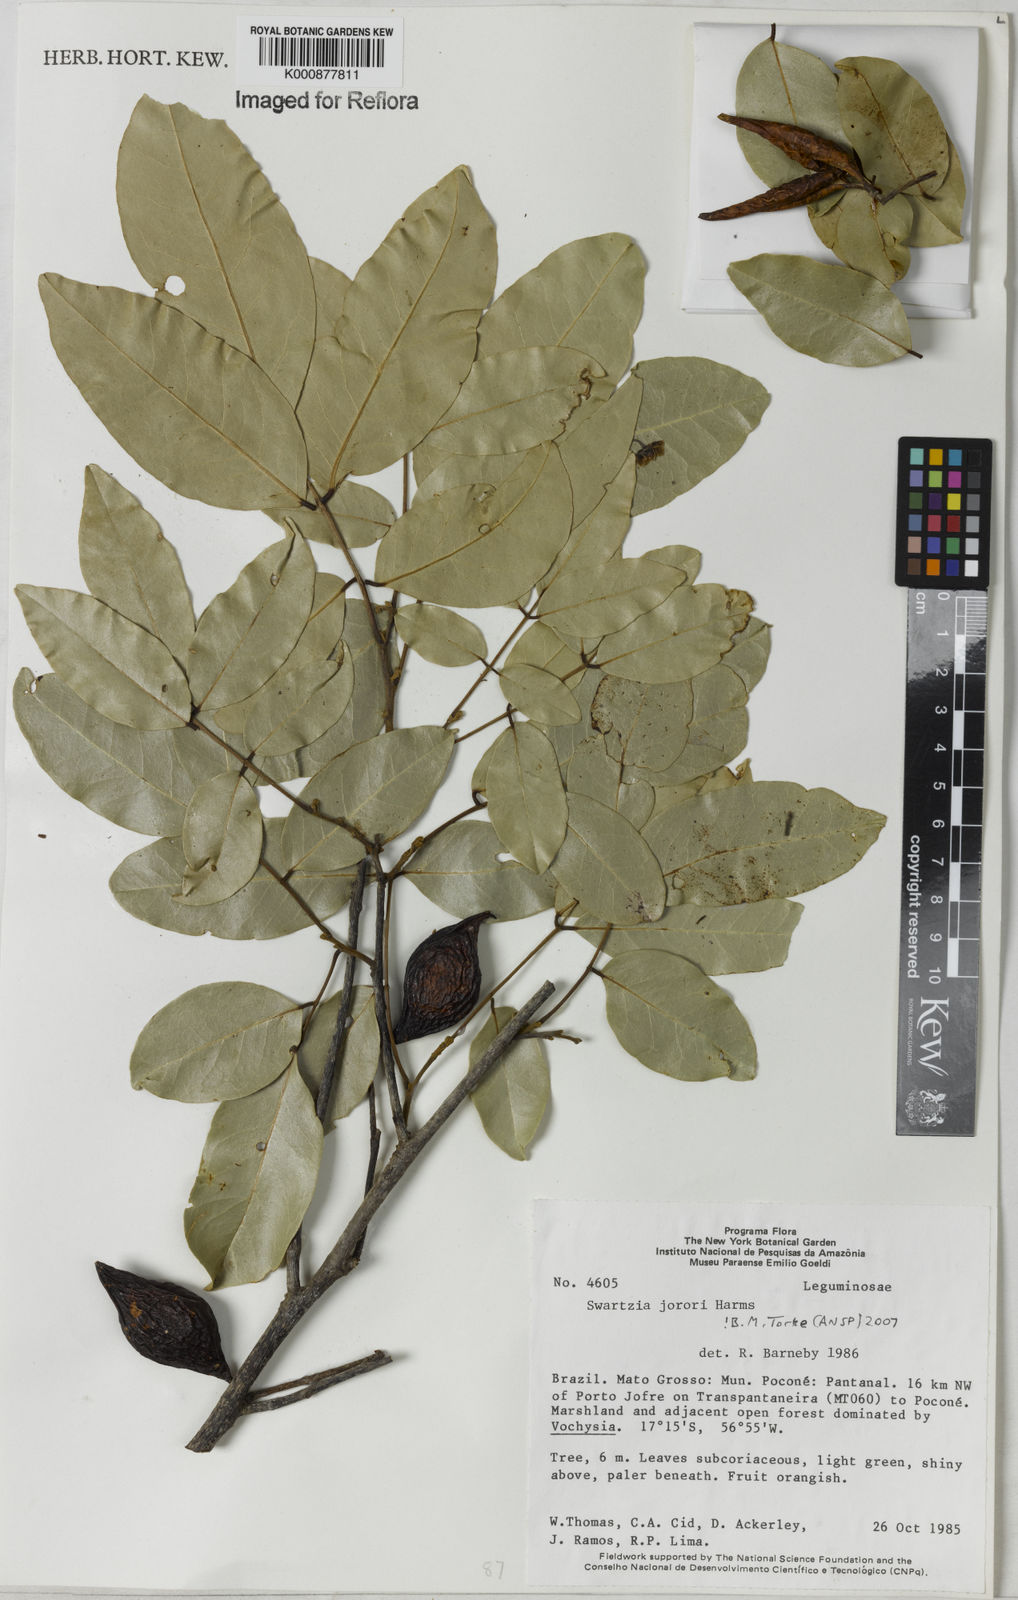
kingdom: Plantae
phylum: Tracheophyta
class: Magnoliopsida
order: Fabales
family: Fabaceae
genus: Swartzia
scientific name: Swartzia jorori
